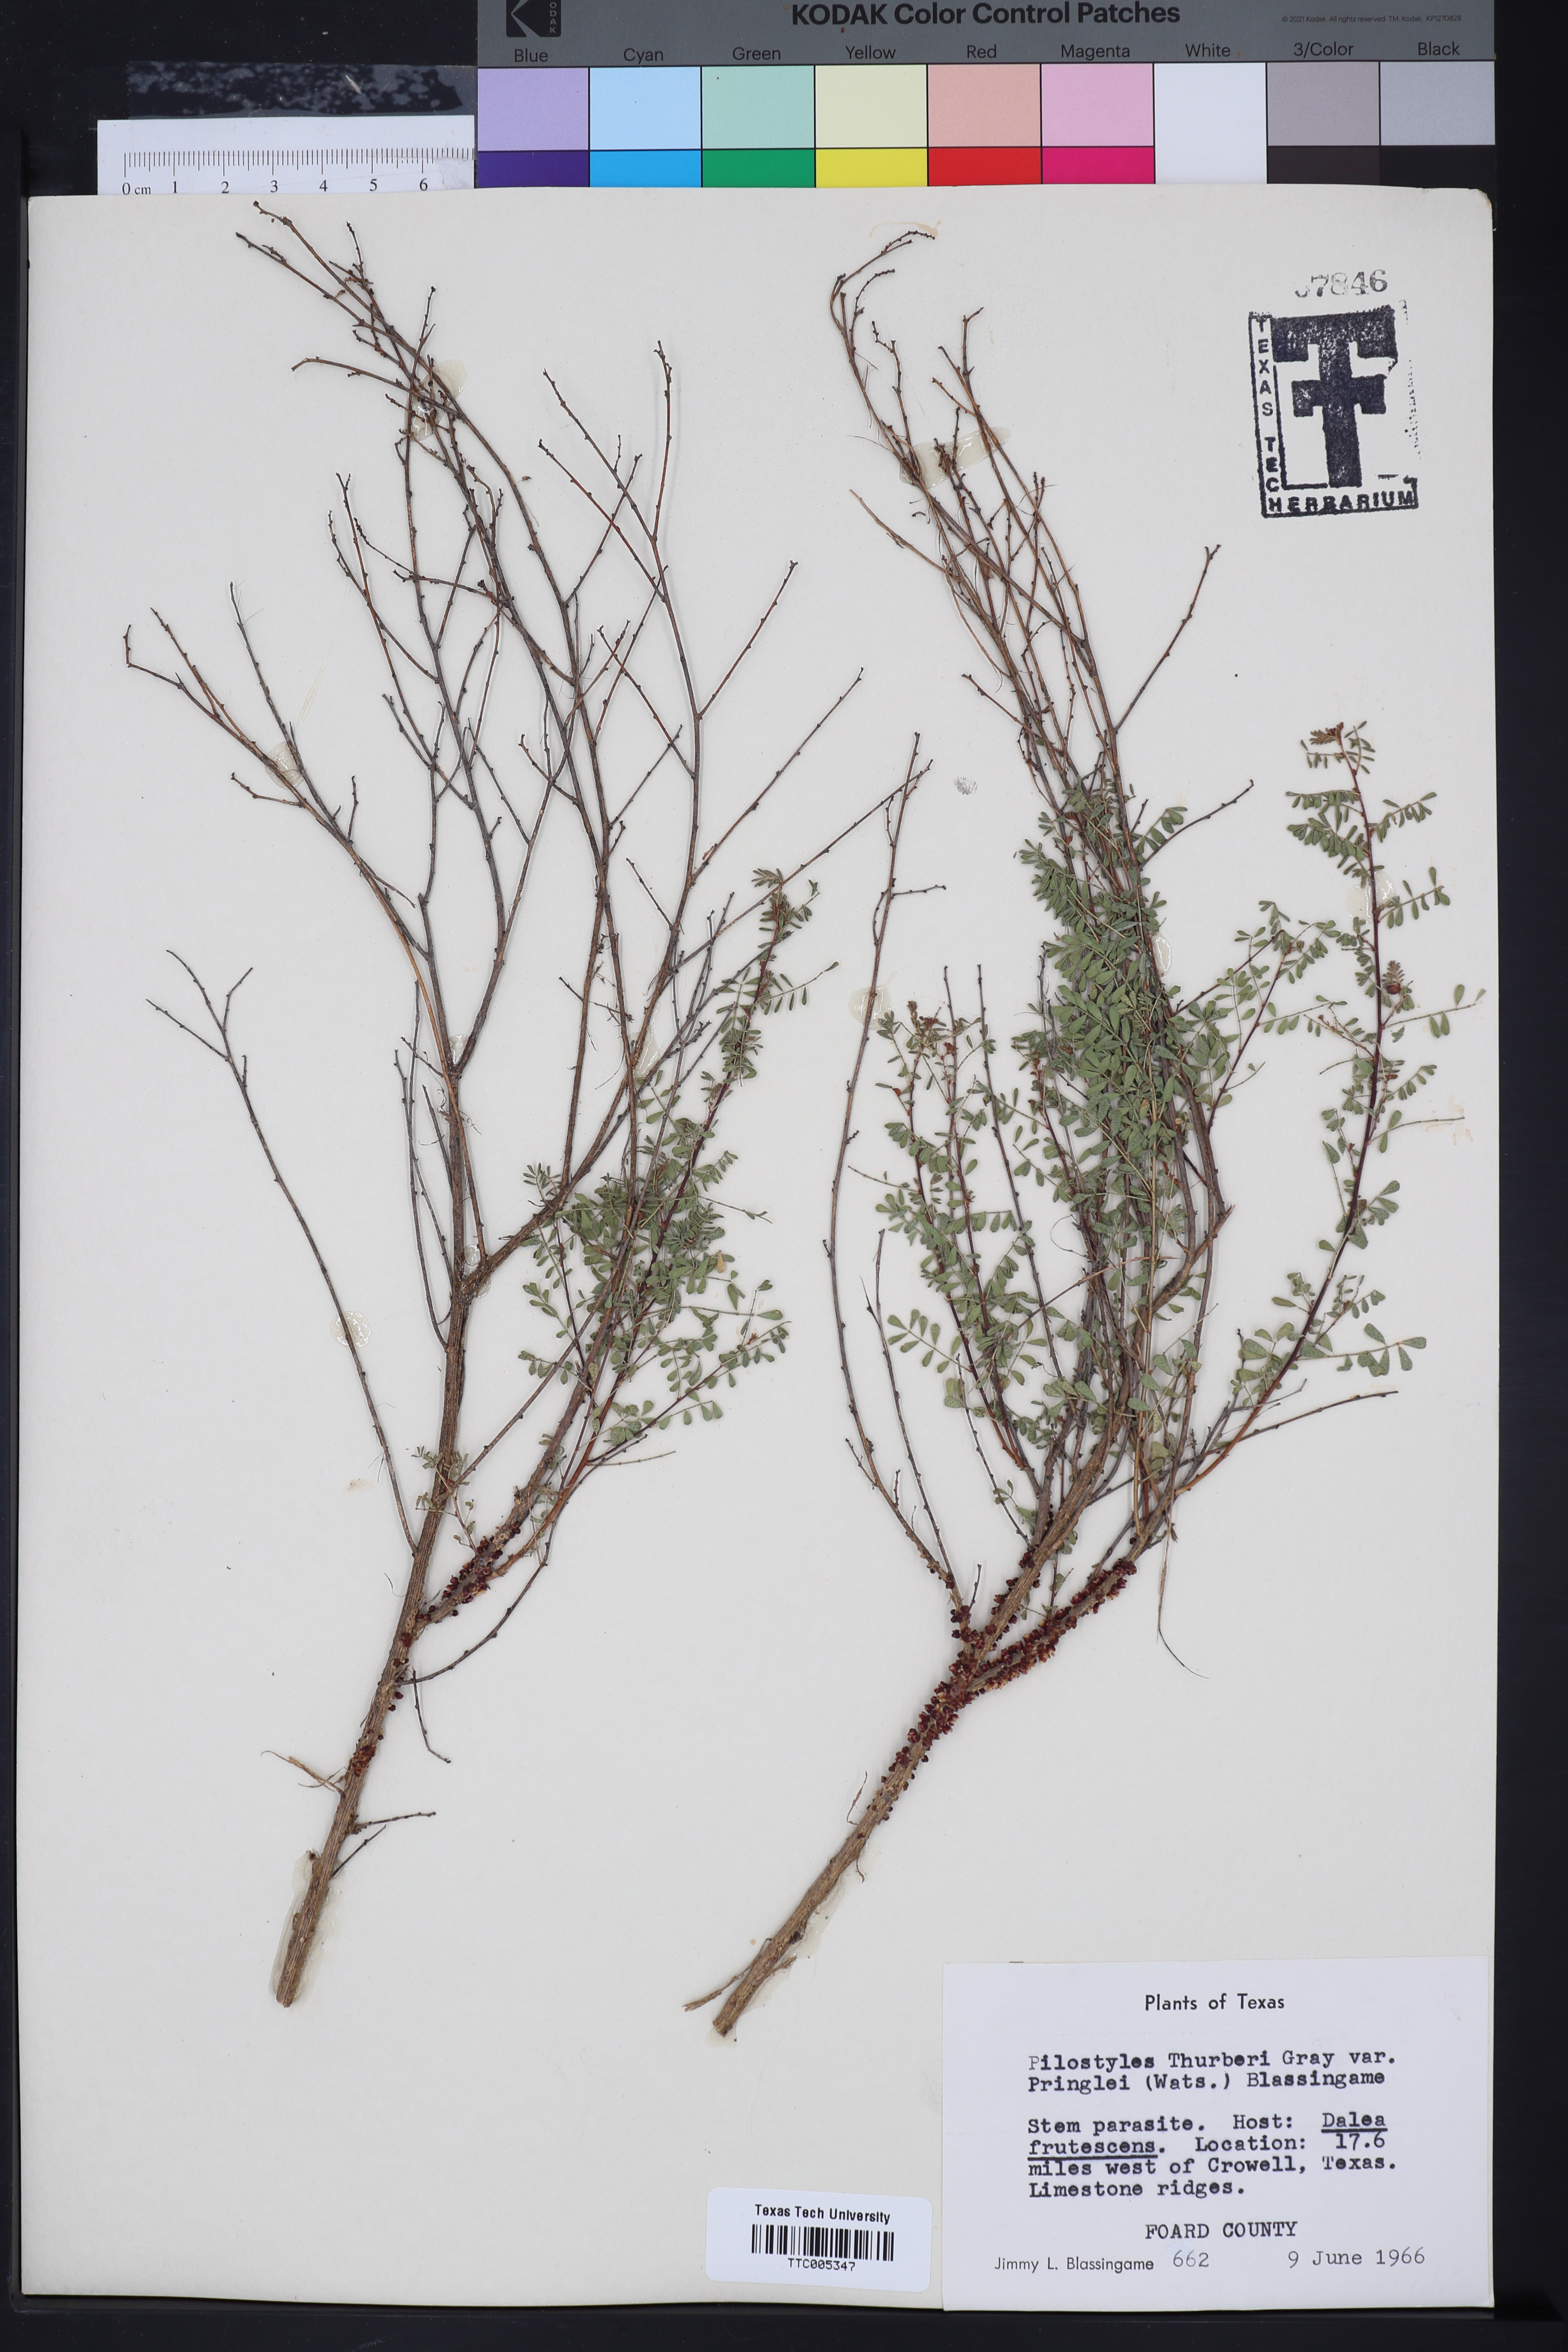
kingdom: Plantae
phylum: Tracheophyta
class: Magnoliopsida
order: Cucurbitales
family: Apodanthaceae
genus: Pilostyles
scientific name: Pilostyles thurberi
